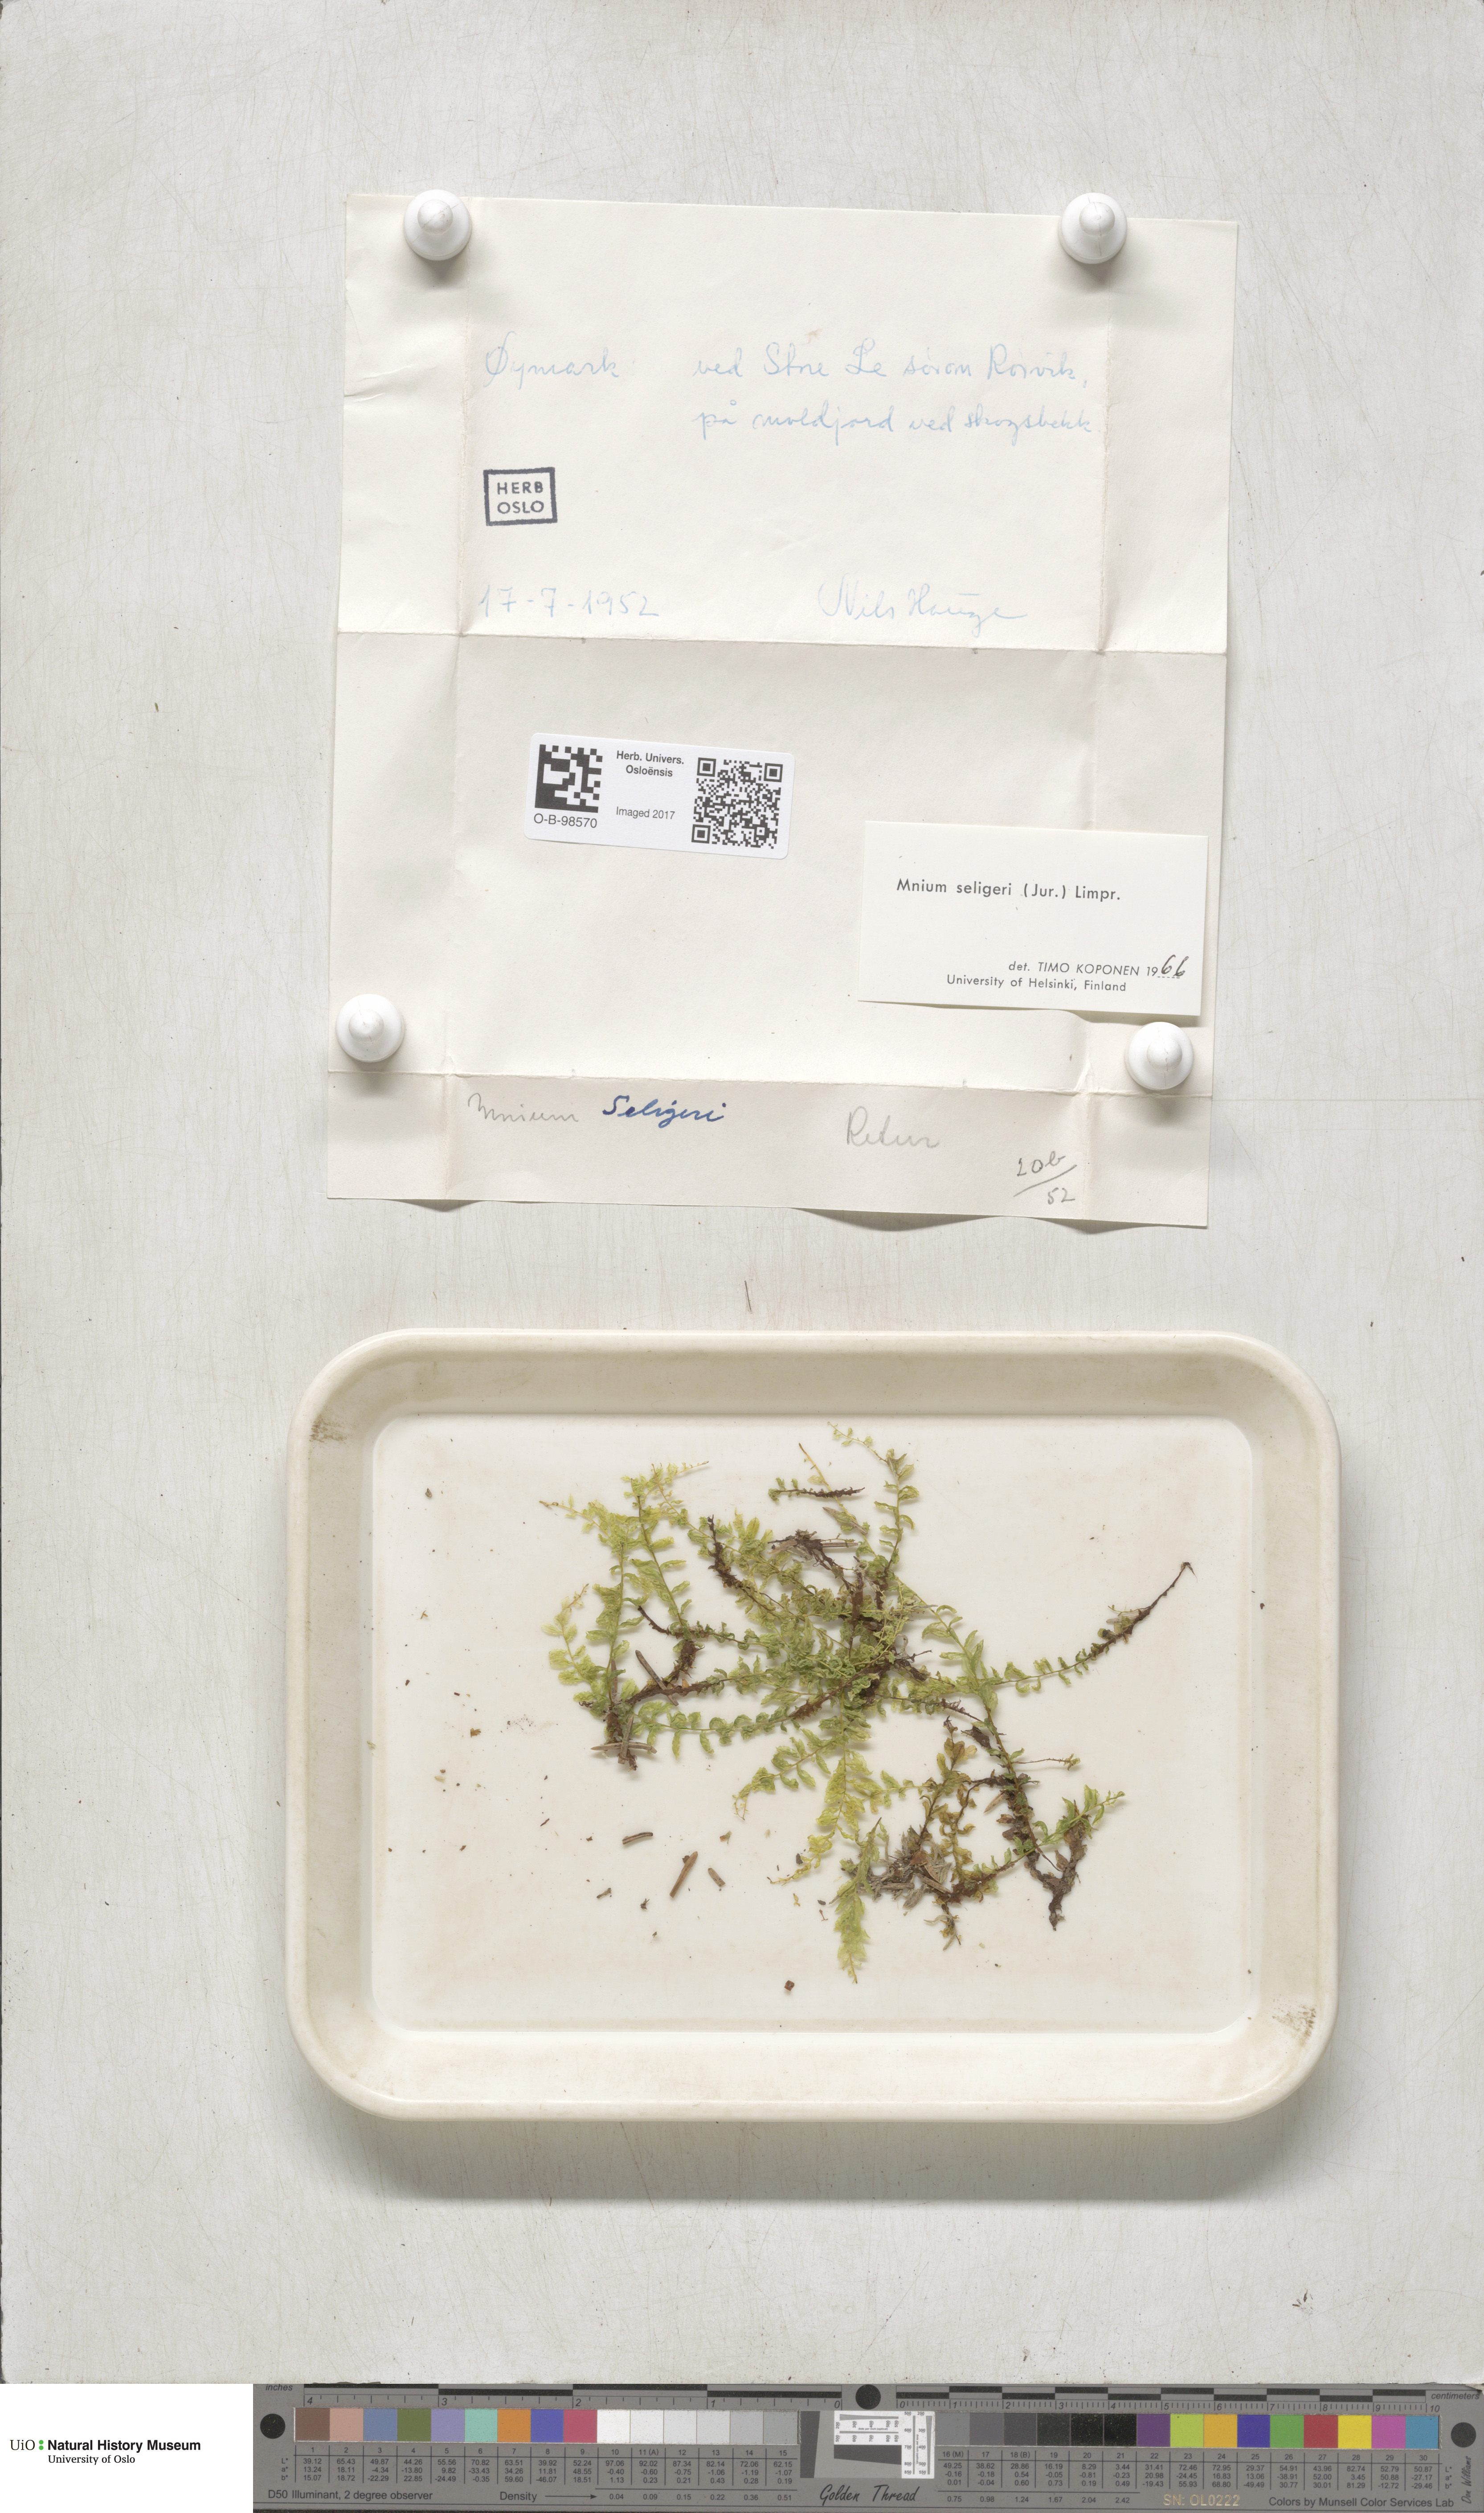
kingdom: Plantae
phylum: Bryophyta
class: Bryopsida
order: Bryales
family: Mniaceae
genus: Plagiomnium
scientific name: Plagiomnium elatum
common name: Tall thyme-moss
